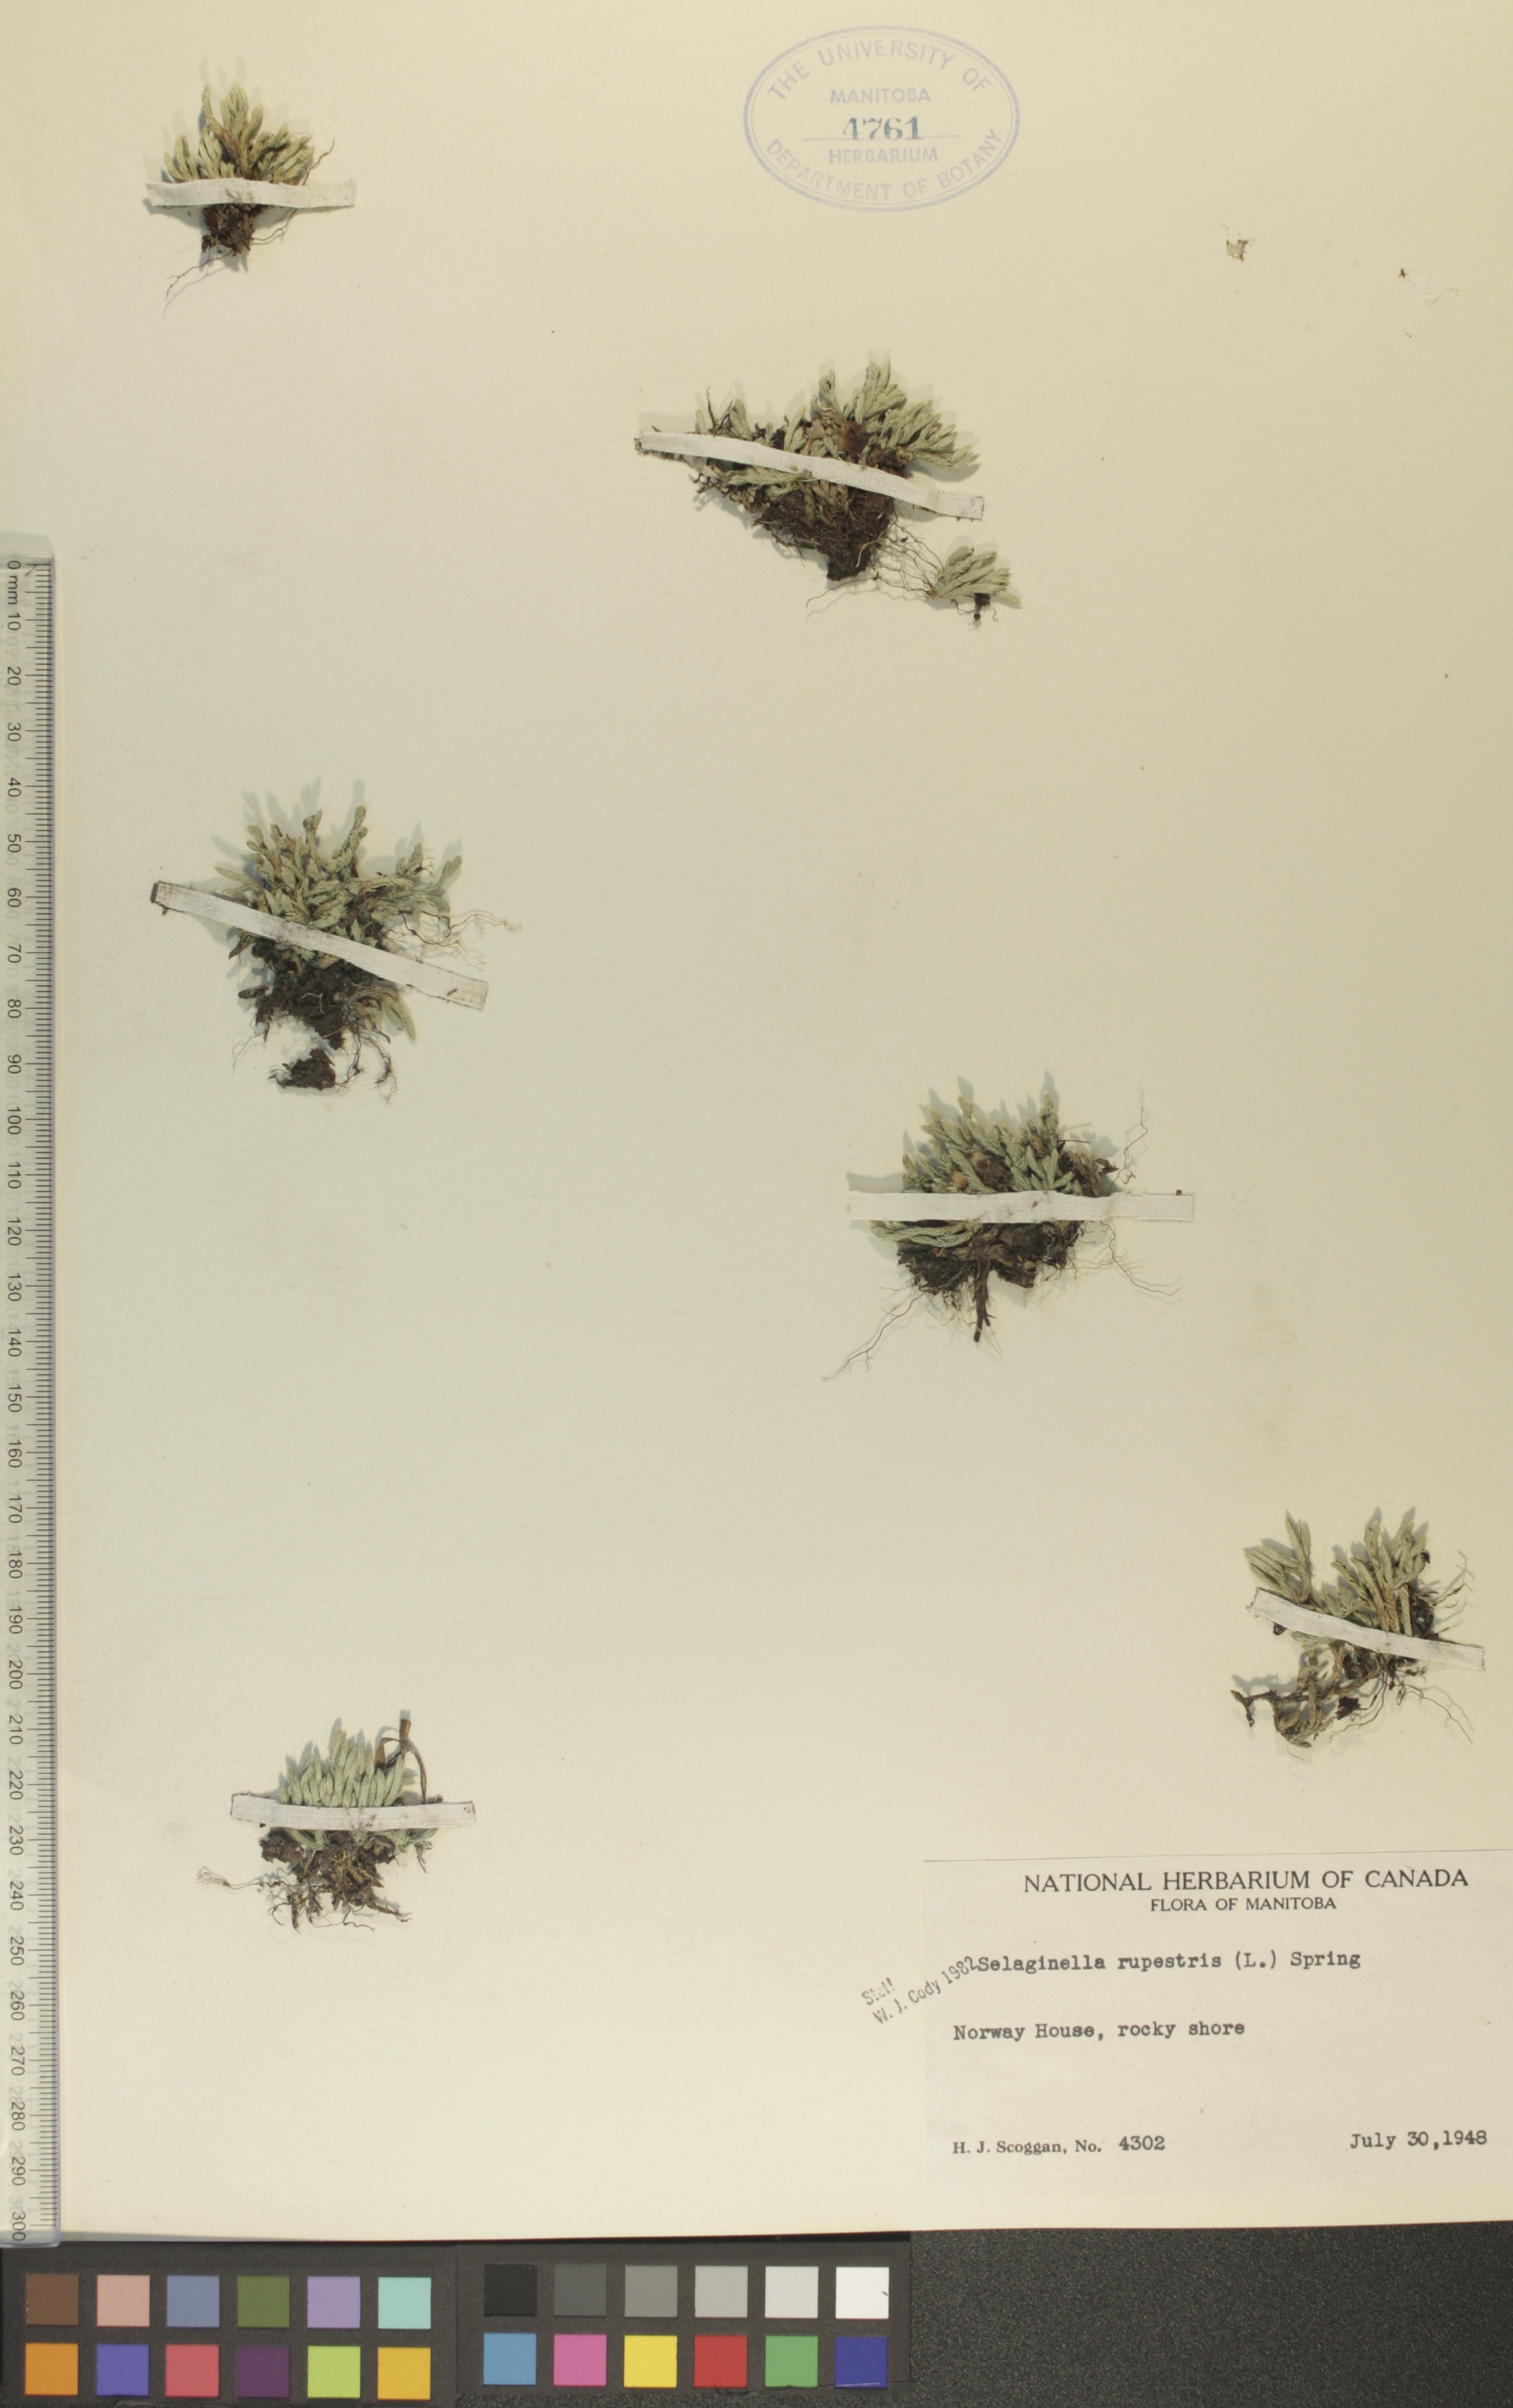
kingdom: Plantae
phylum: Tracheophyta
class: Lycopodiopsida
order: Selaginellales
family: Selaginellaceae
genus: Selaginella
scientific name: Selaginella rupestris
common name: Dwarf spikemoss
